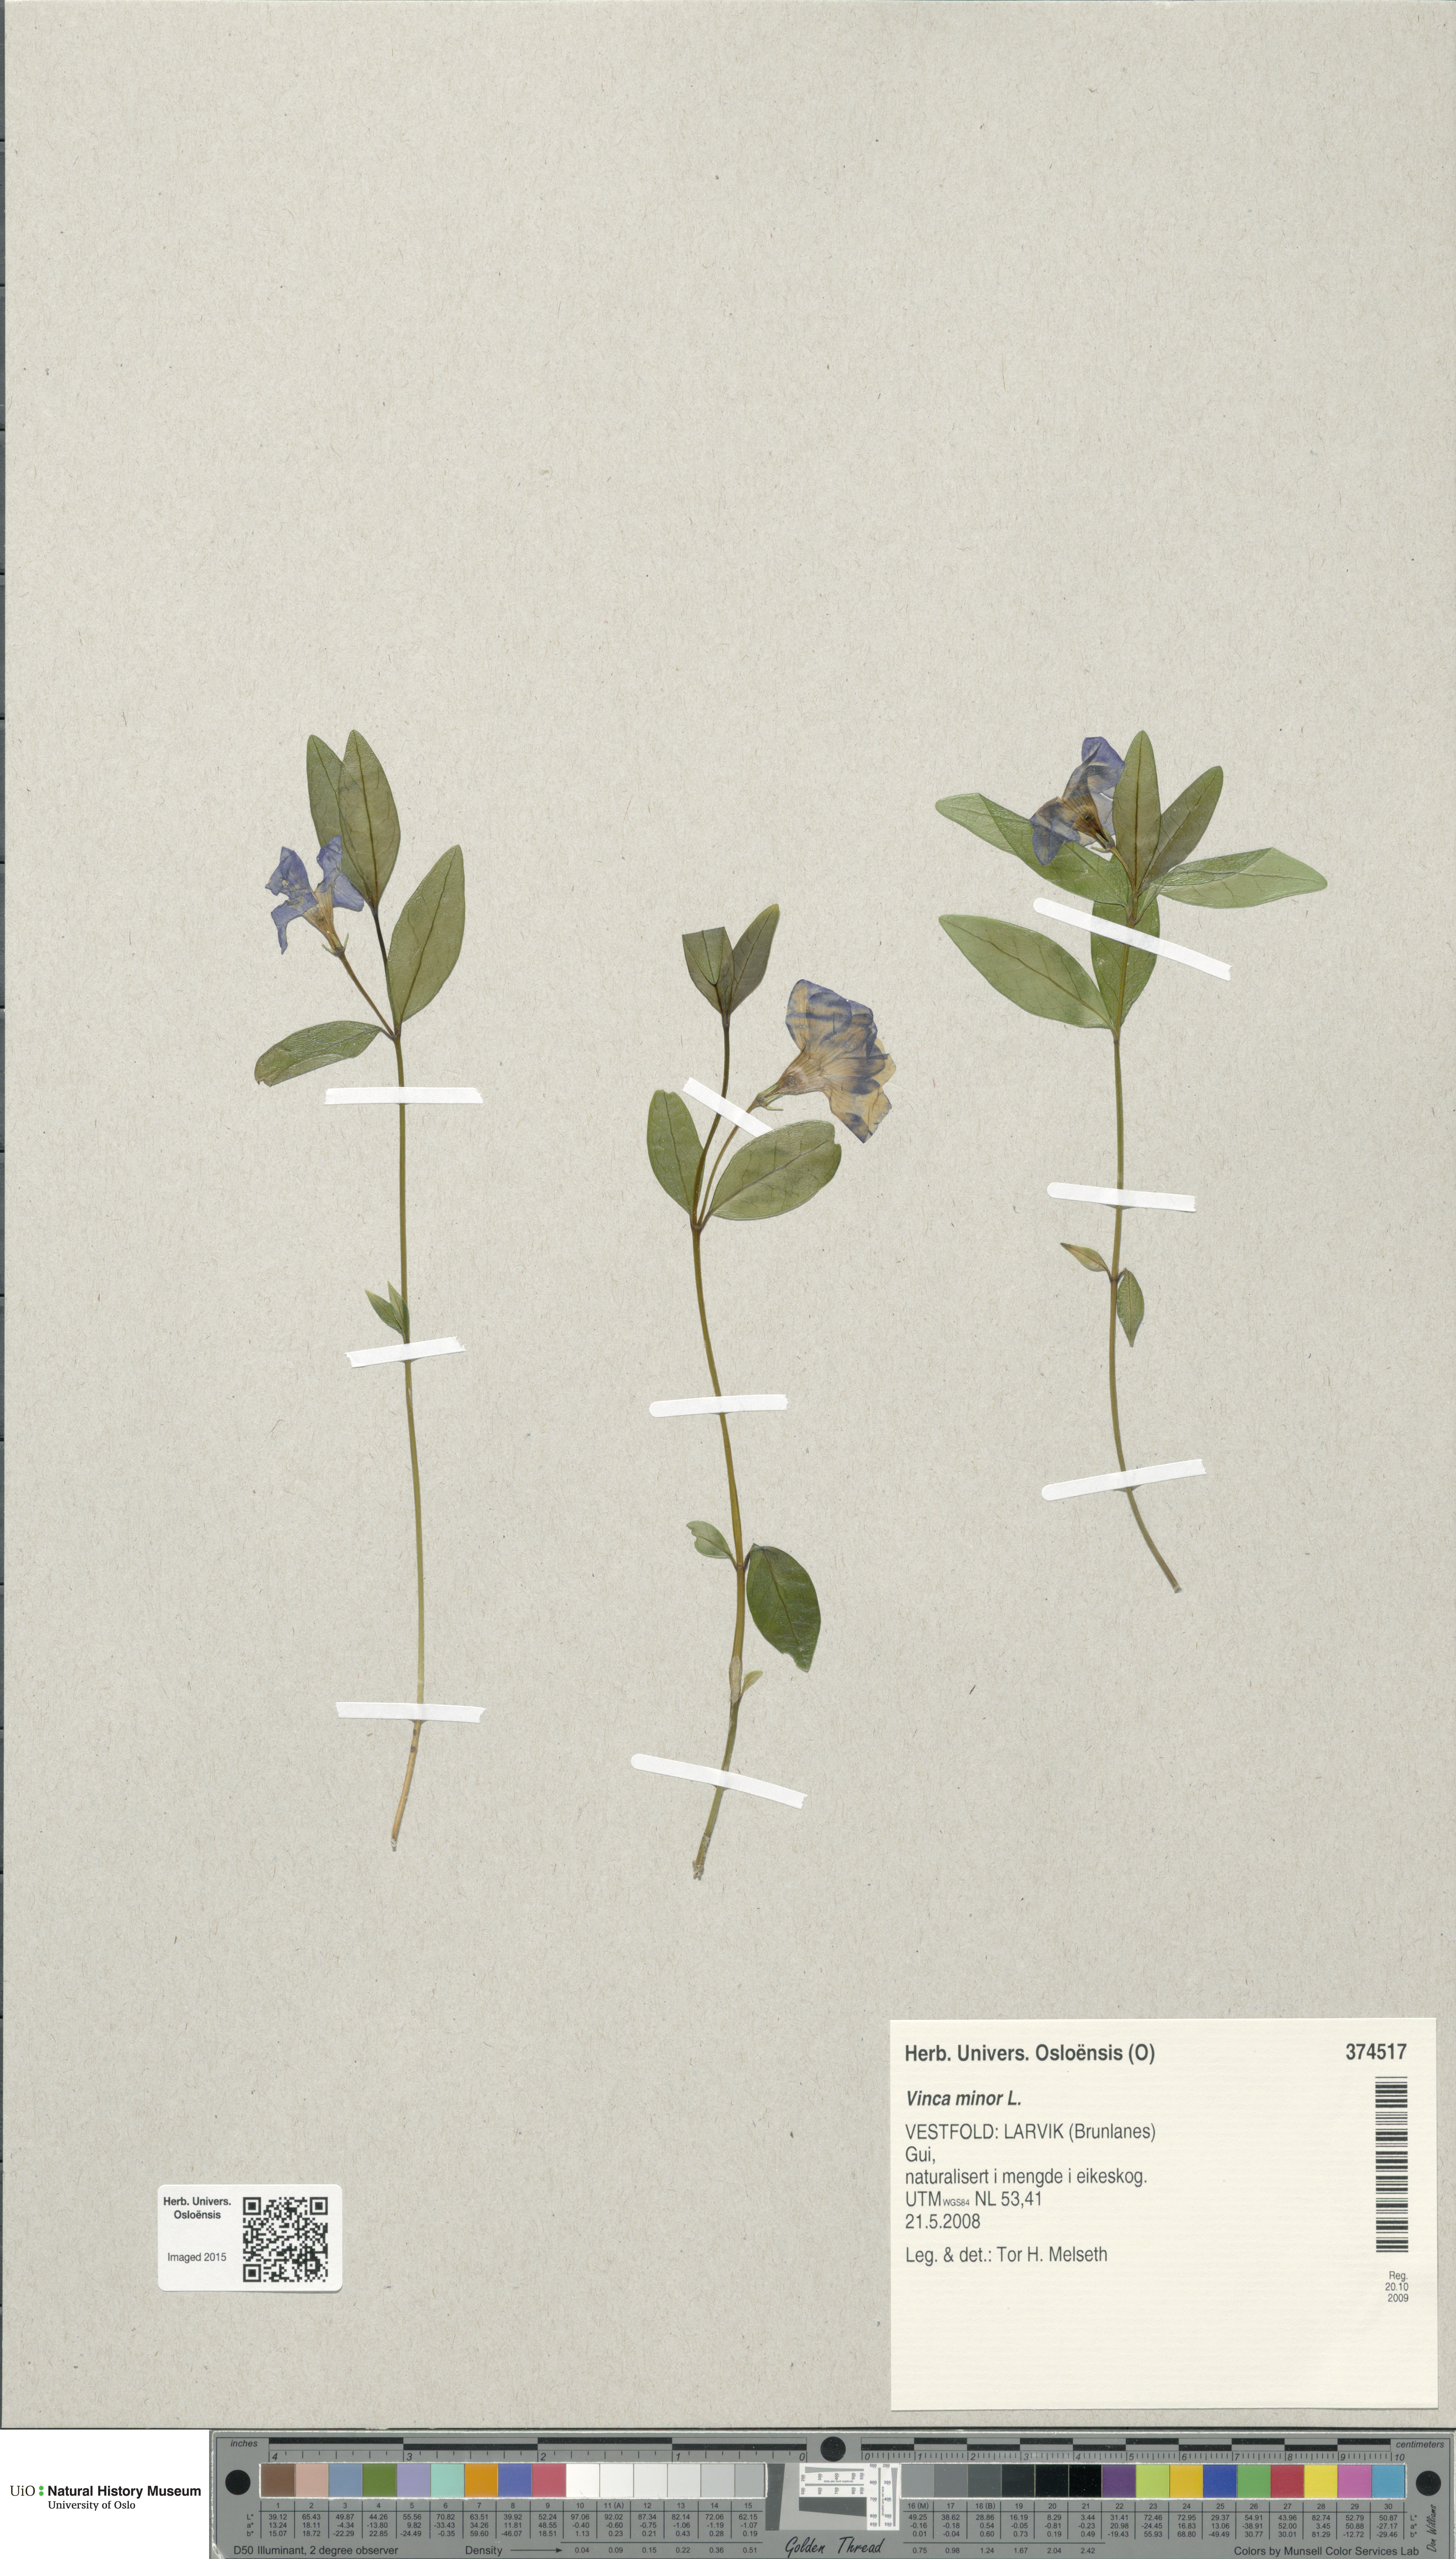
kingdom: Plantae
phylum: Tracheophyta
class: Magnoliopsida
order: Gentianales
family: Apocynaceae
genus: Vinca
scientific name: Vinca minor
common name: Lesser periwinkle
